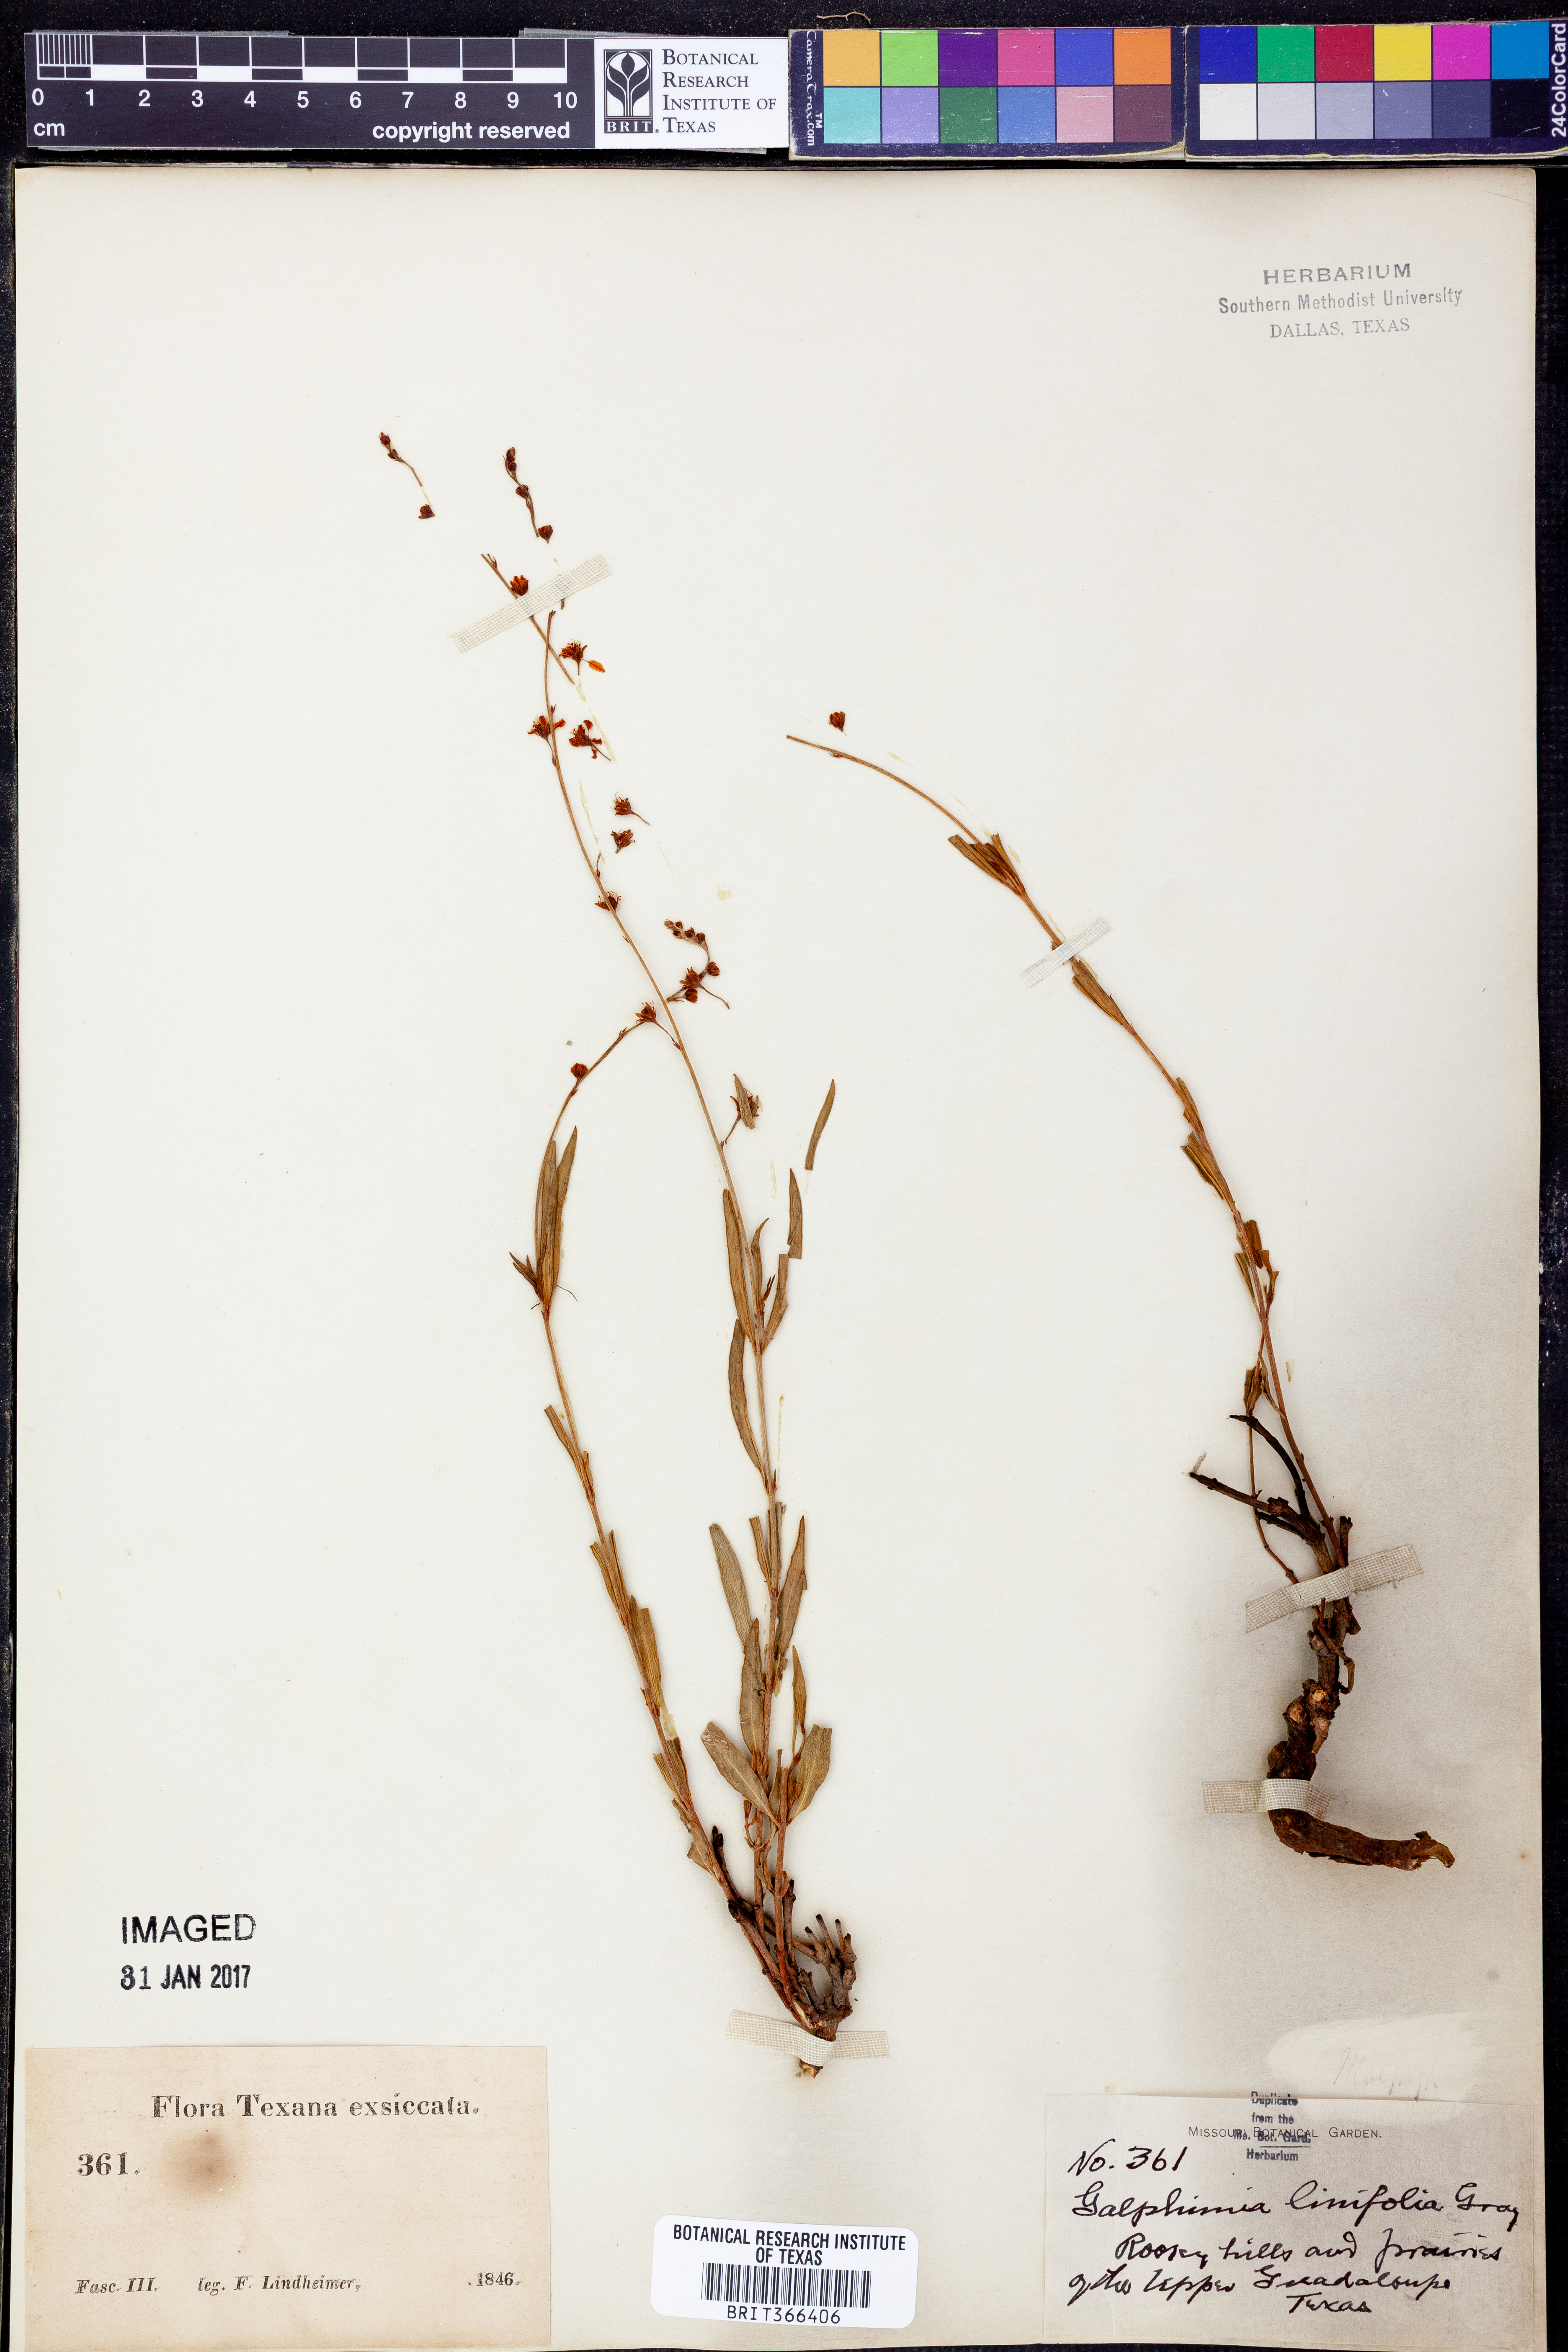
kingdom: Plantae
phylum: Tracheophyta
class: Magnoliopsida
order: Malpighiales
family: Malpighiaceae
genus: Galphimia
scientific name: Galphimia angustifolia
